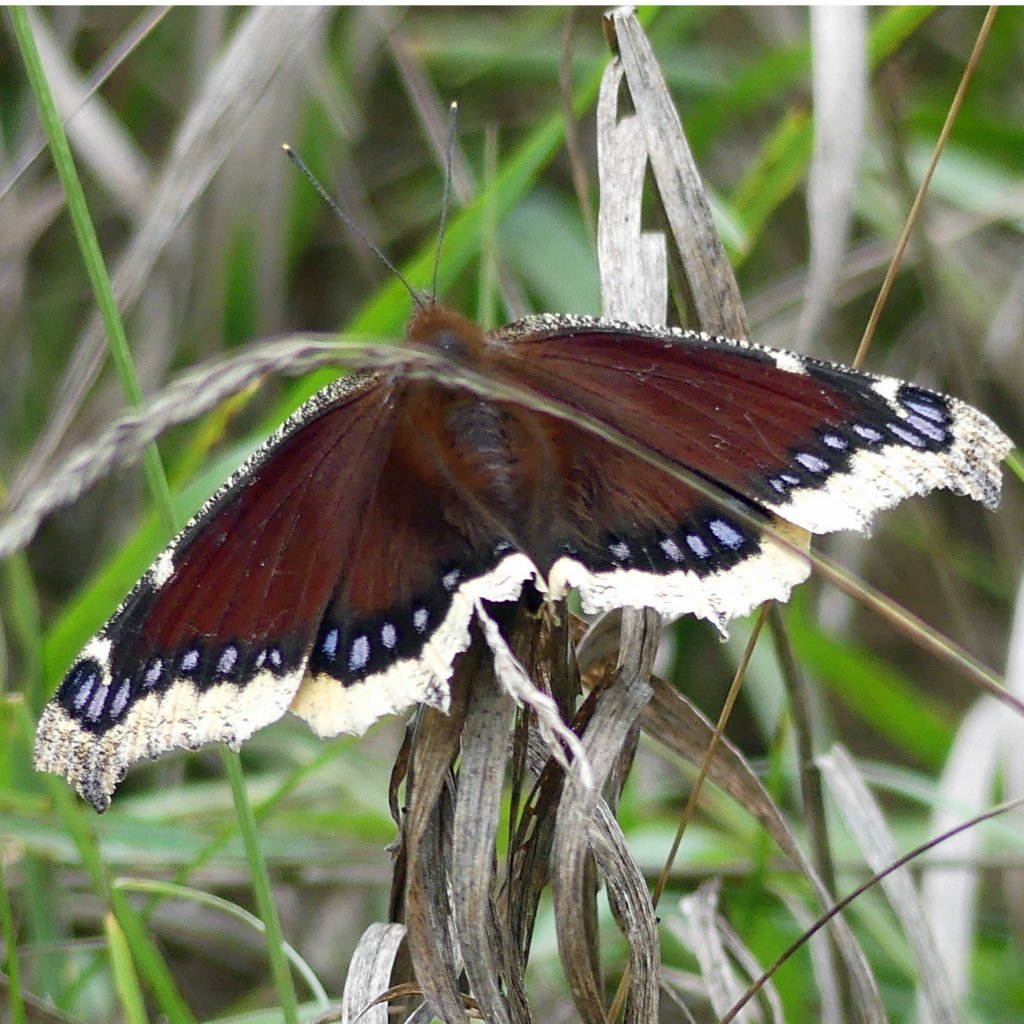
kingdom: Animalia
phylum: Arthropoda
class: Insecta
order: Lepidoptera
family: Nymphalidae
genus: Nymphalis
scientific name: Nymphalis antiopa
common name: Mourning Cloak
